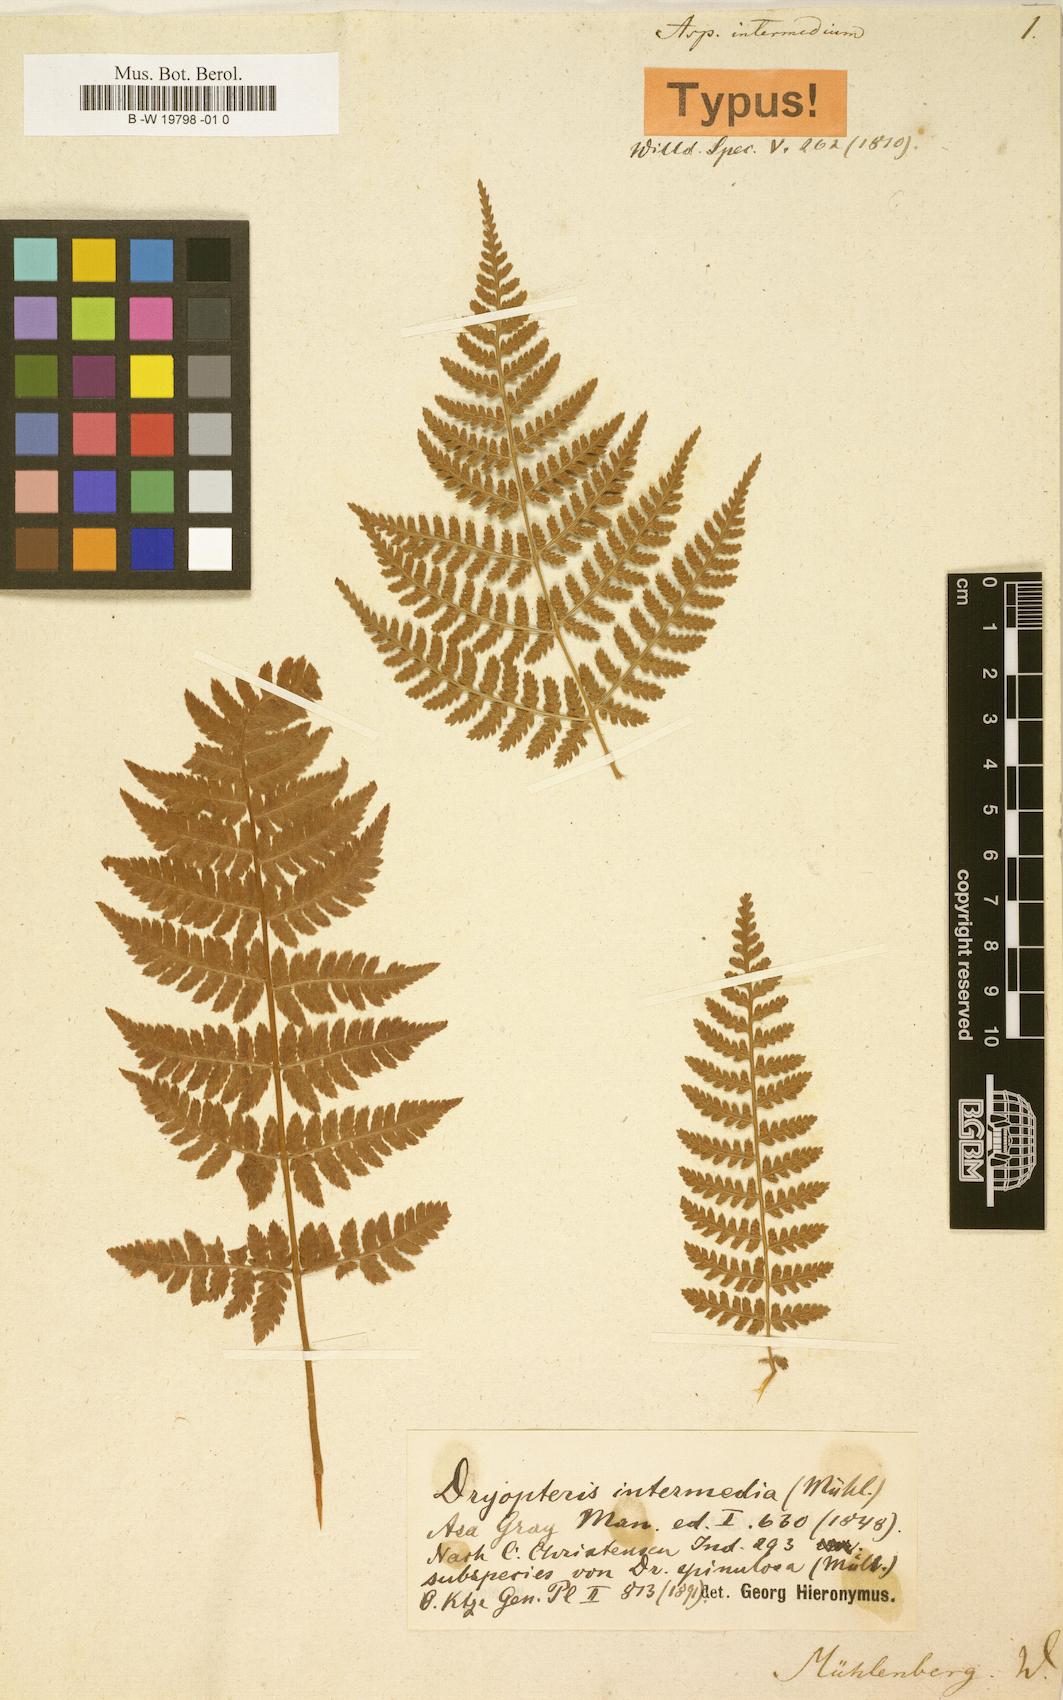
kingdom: Plantae
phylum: Tracheophyta
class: Polypodiopsida
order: Polypodiales
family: Dryopteridaceae
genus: Dryopteris
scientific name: Dryopteris intermedia
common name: Evergreen wood fern
